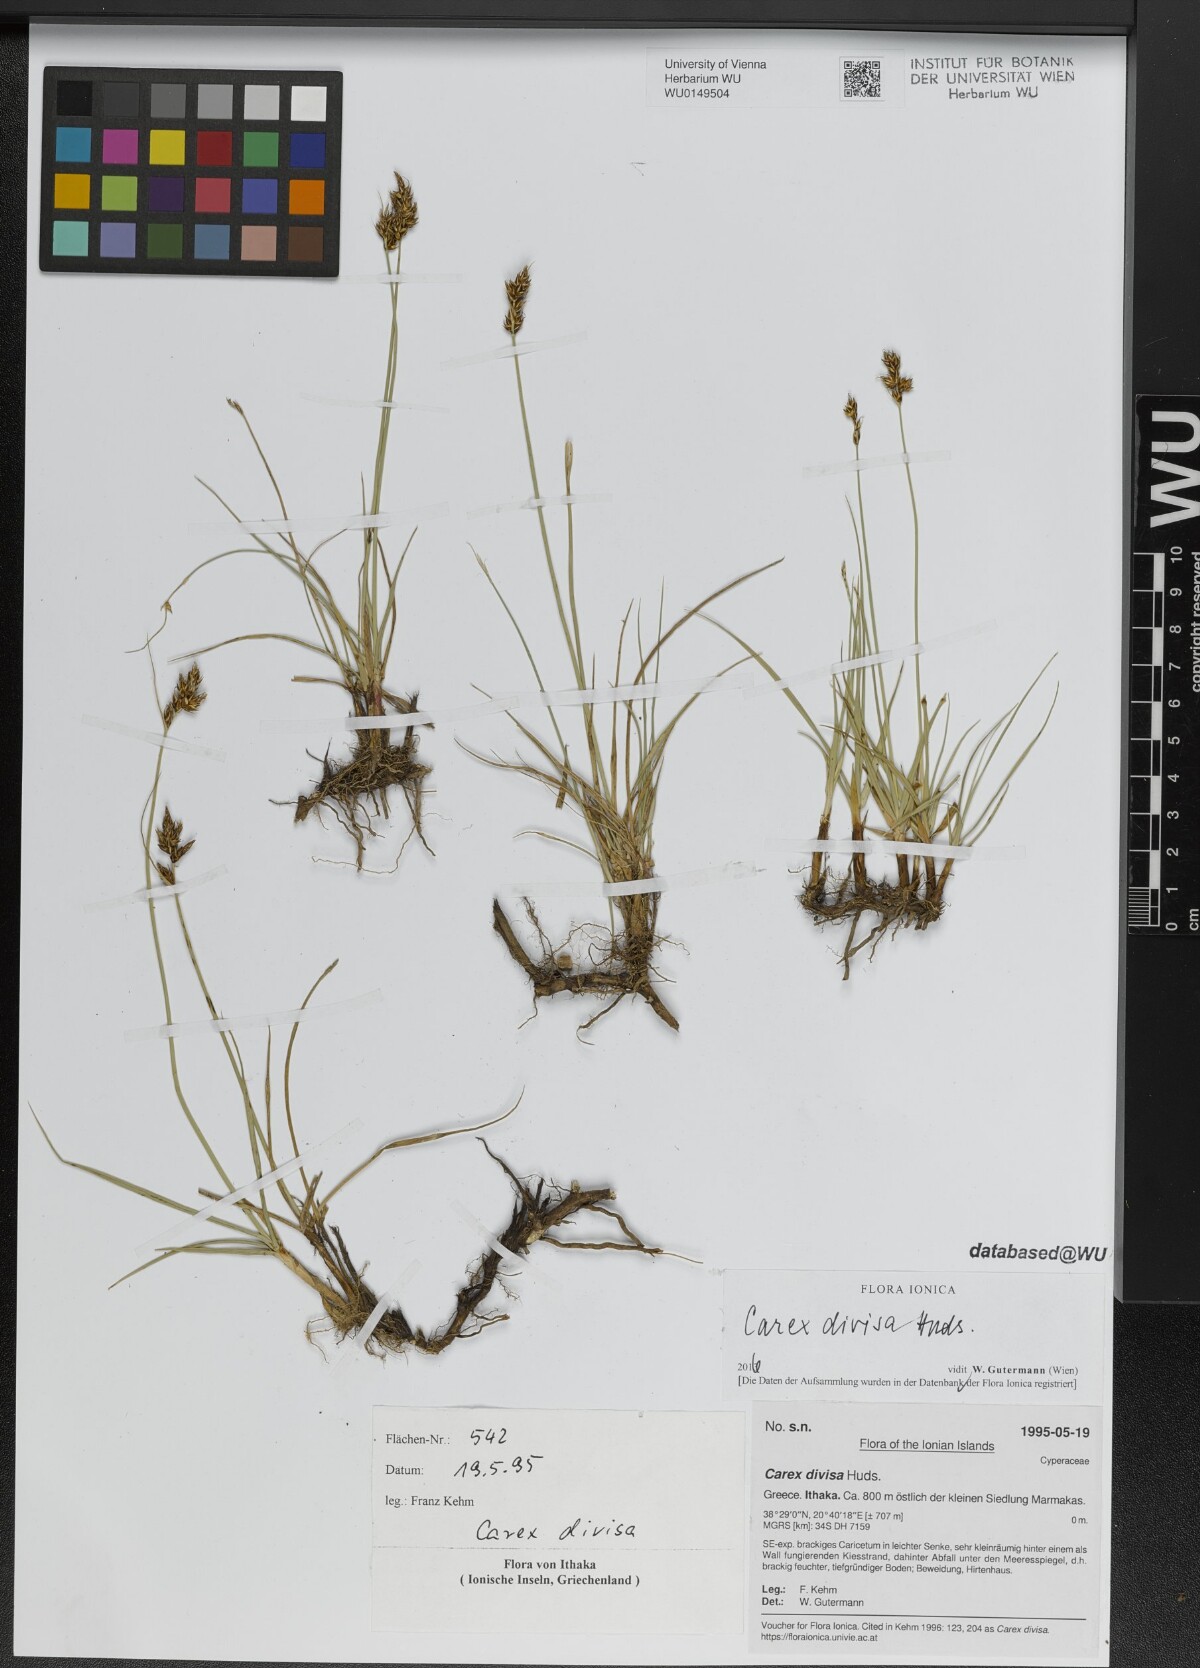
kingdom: Plantae
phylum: Tracheophyta
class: Liliopsida
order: Poales
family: Cyperaceae
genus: Carex
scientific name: Carex divisa
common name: Divided sedge
